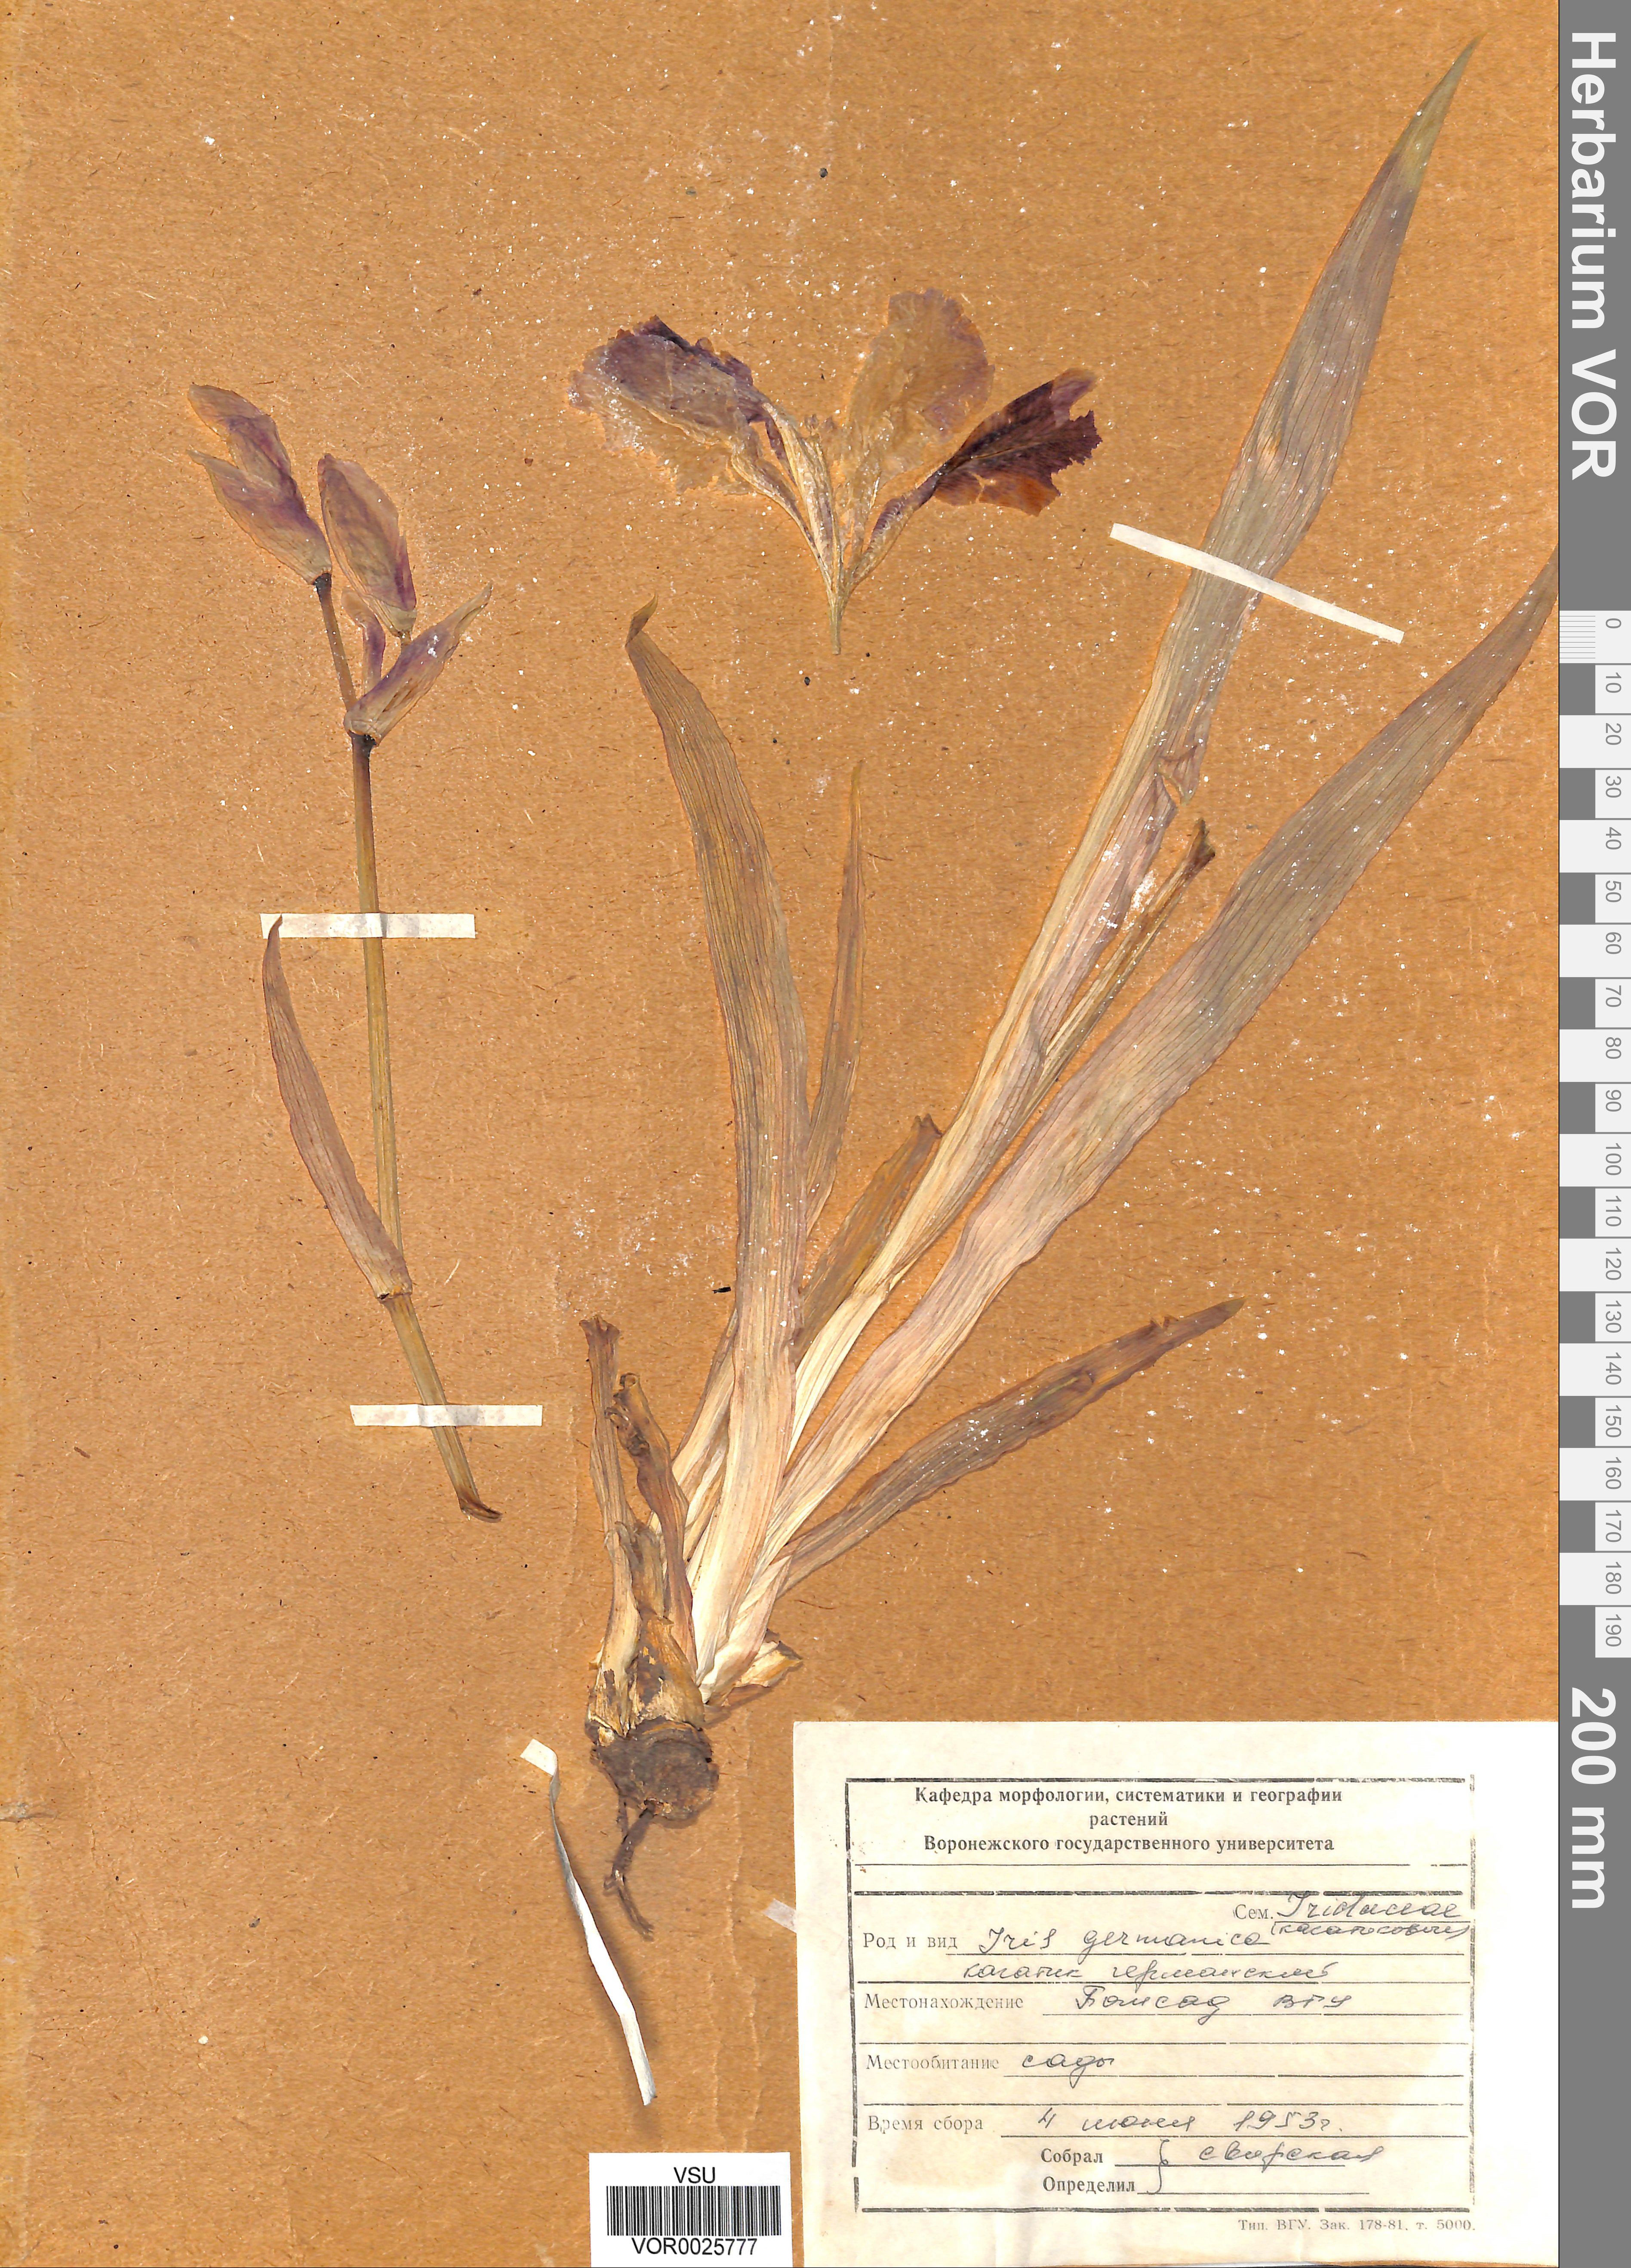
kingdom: Plantae
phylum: Tracheophyta
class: Liliopsida
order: Asparagales
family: Iridaceae
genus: Iris
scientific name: Iris germanica
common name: German iris
